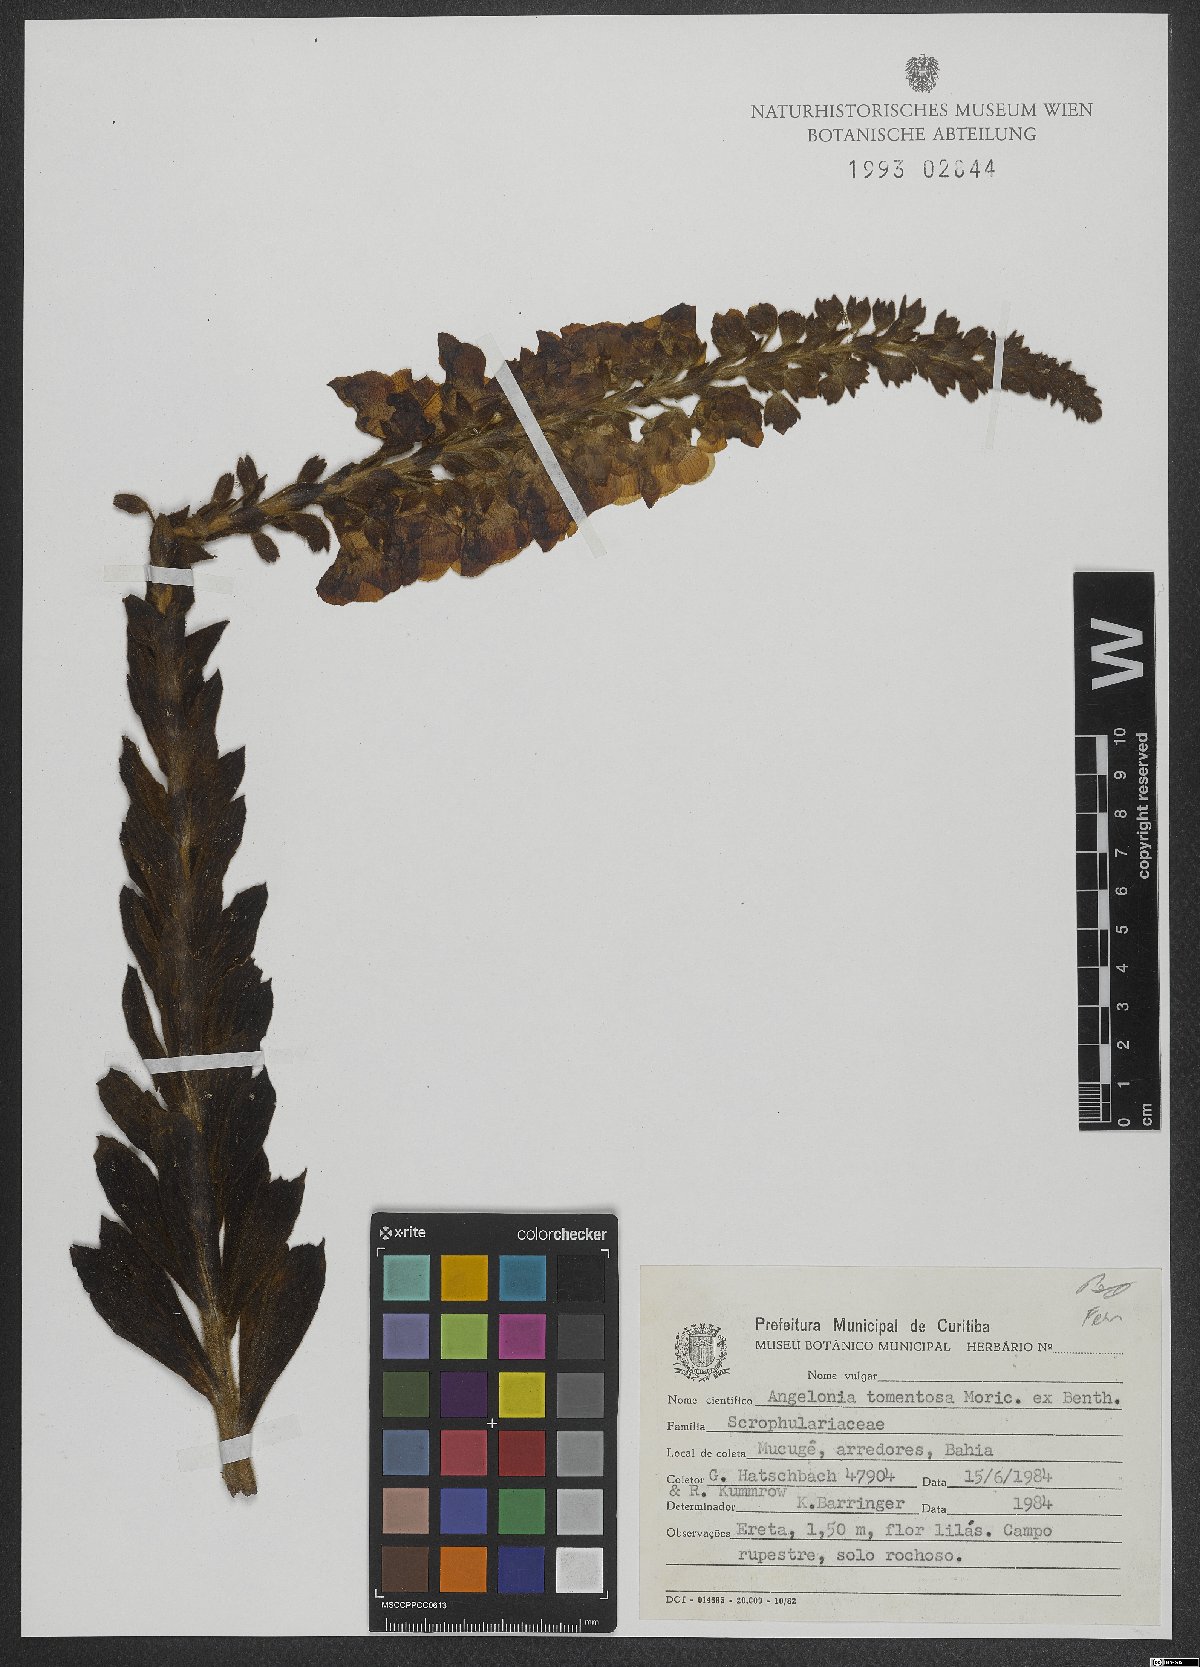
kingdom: Plantae
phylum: Tracheophyta
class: Magnoliopsida
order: Lamiales
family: Plantaginaceae
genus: Angelonia
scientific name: Angelonia tomentosa
